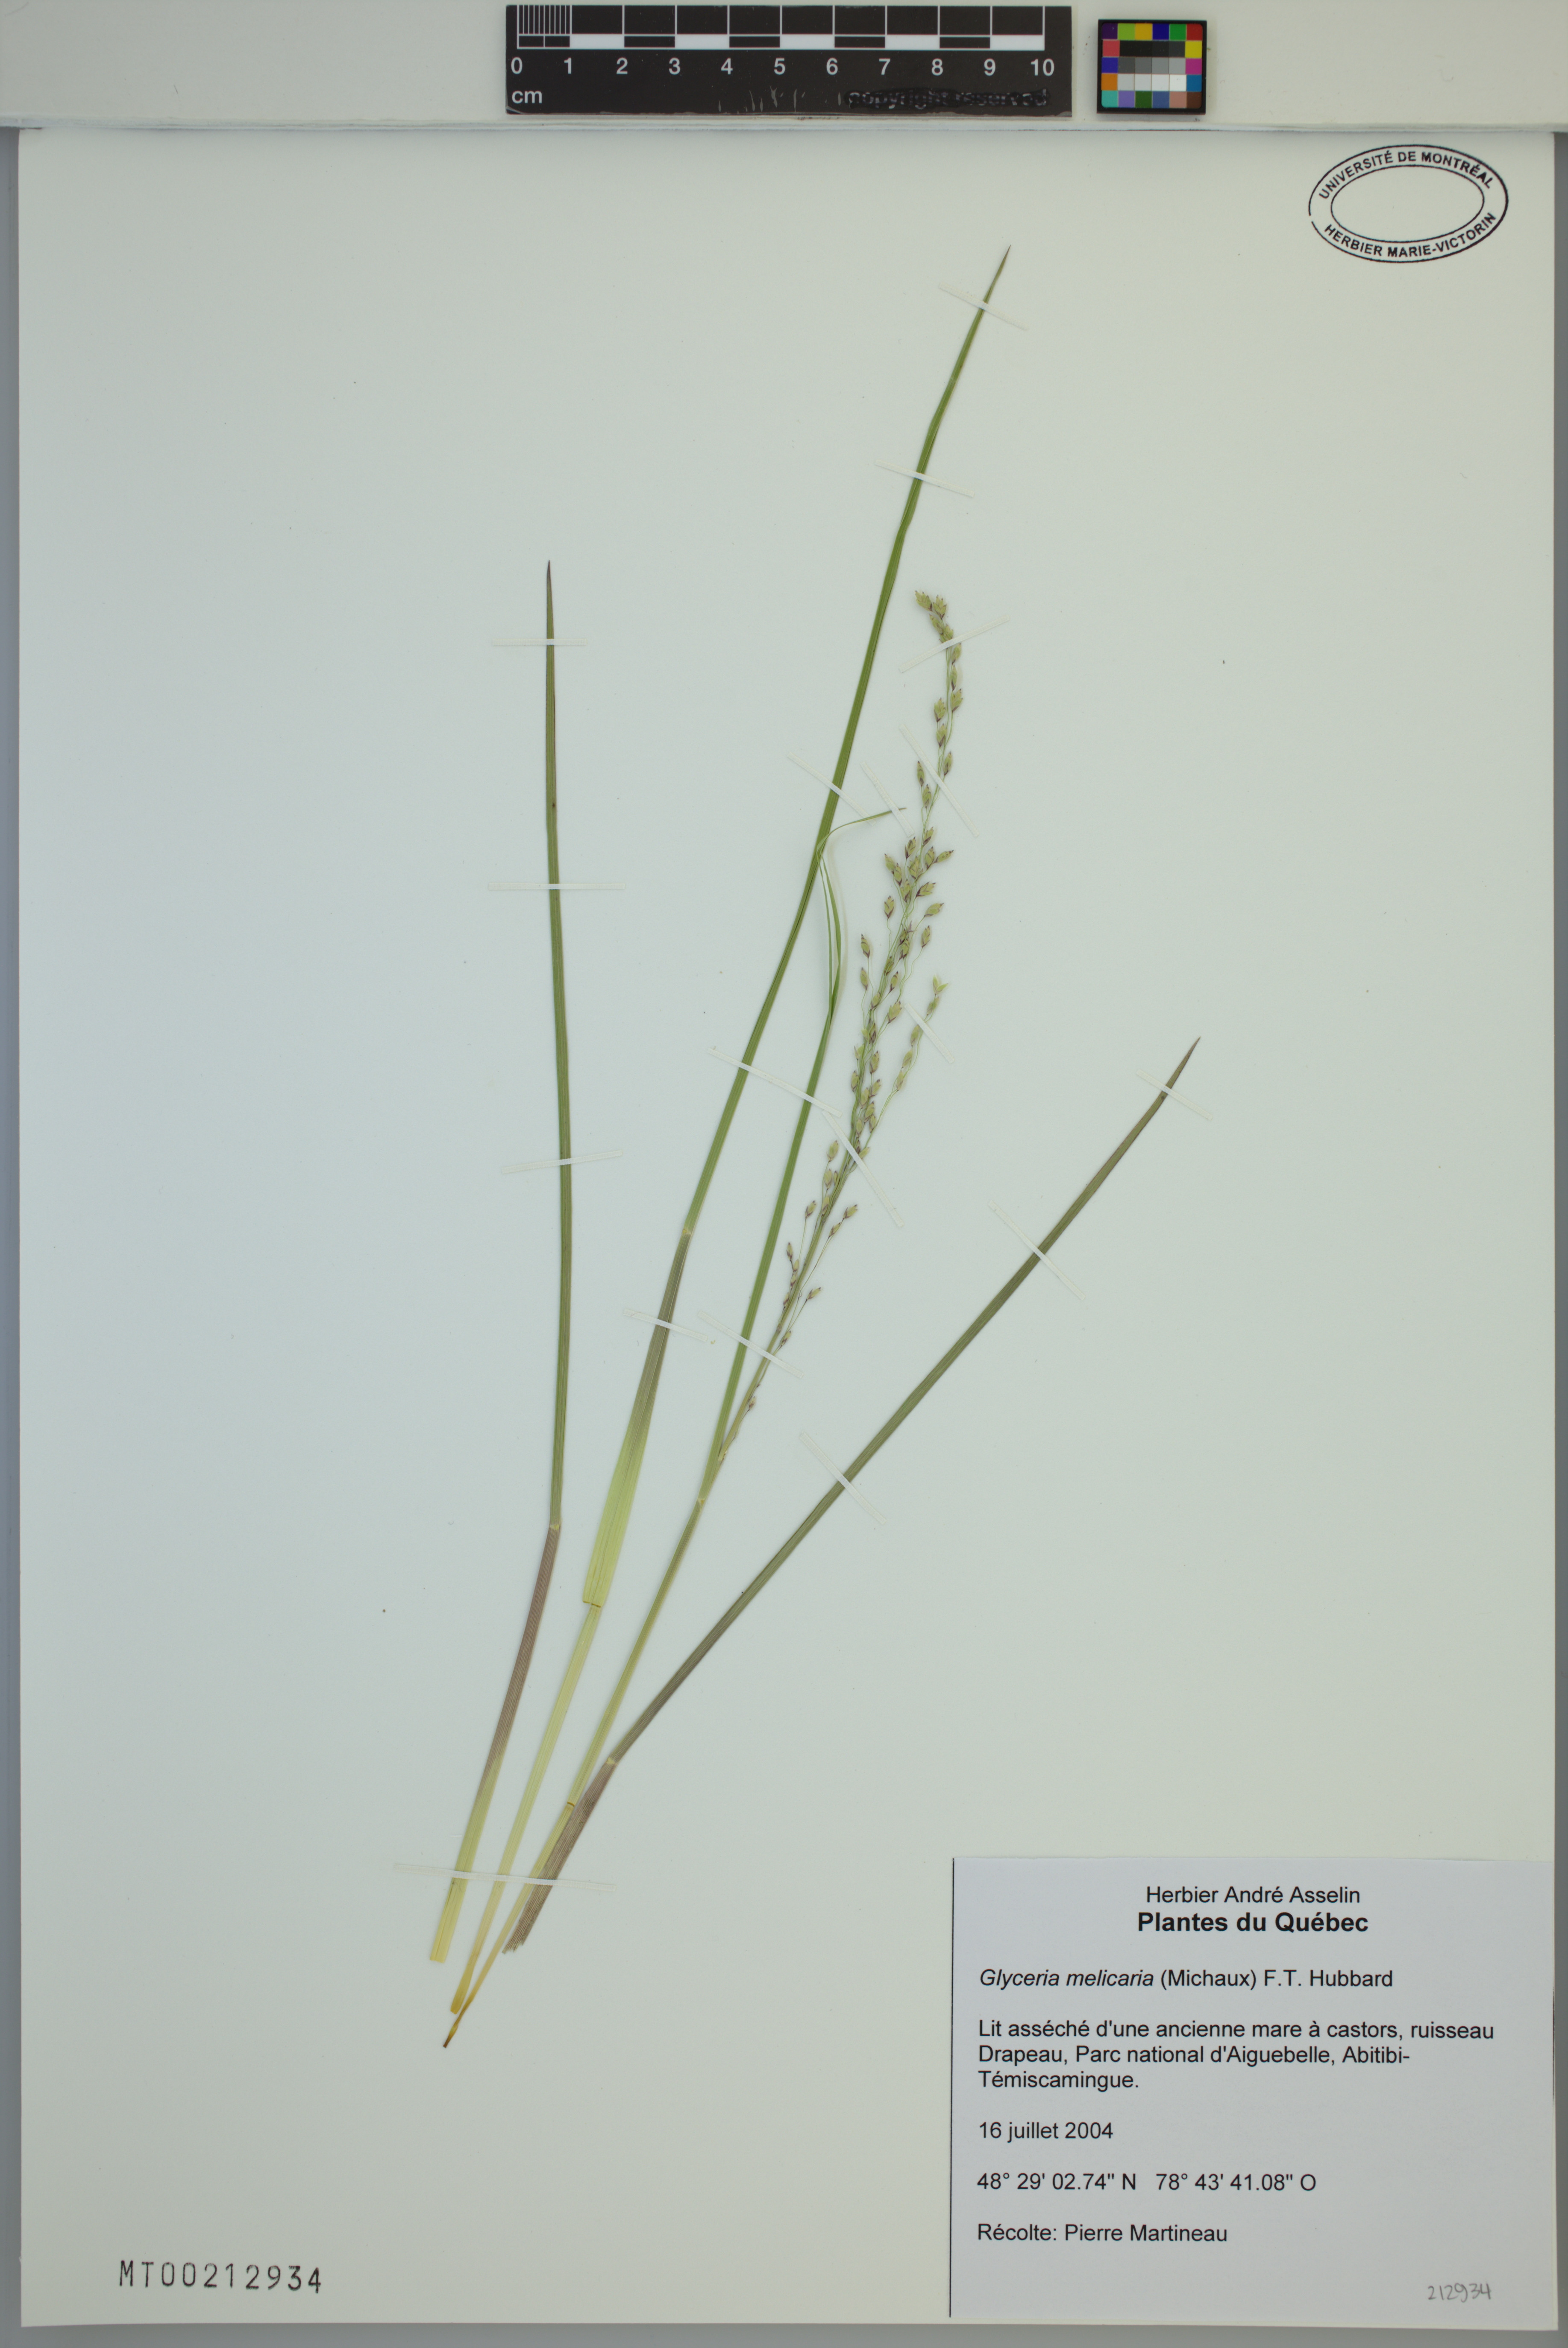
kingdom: Plantae
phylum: Tracheophyta
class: Liliopsida
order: Poales
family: Poaceae
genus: Glyceria
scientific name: Glyceria melicaria
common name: Long mannagrass
